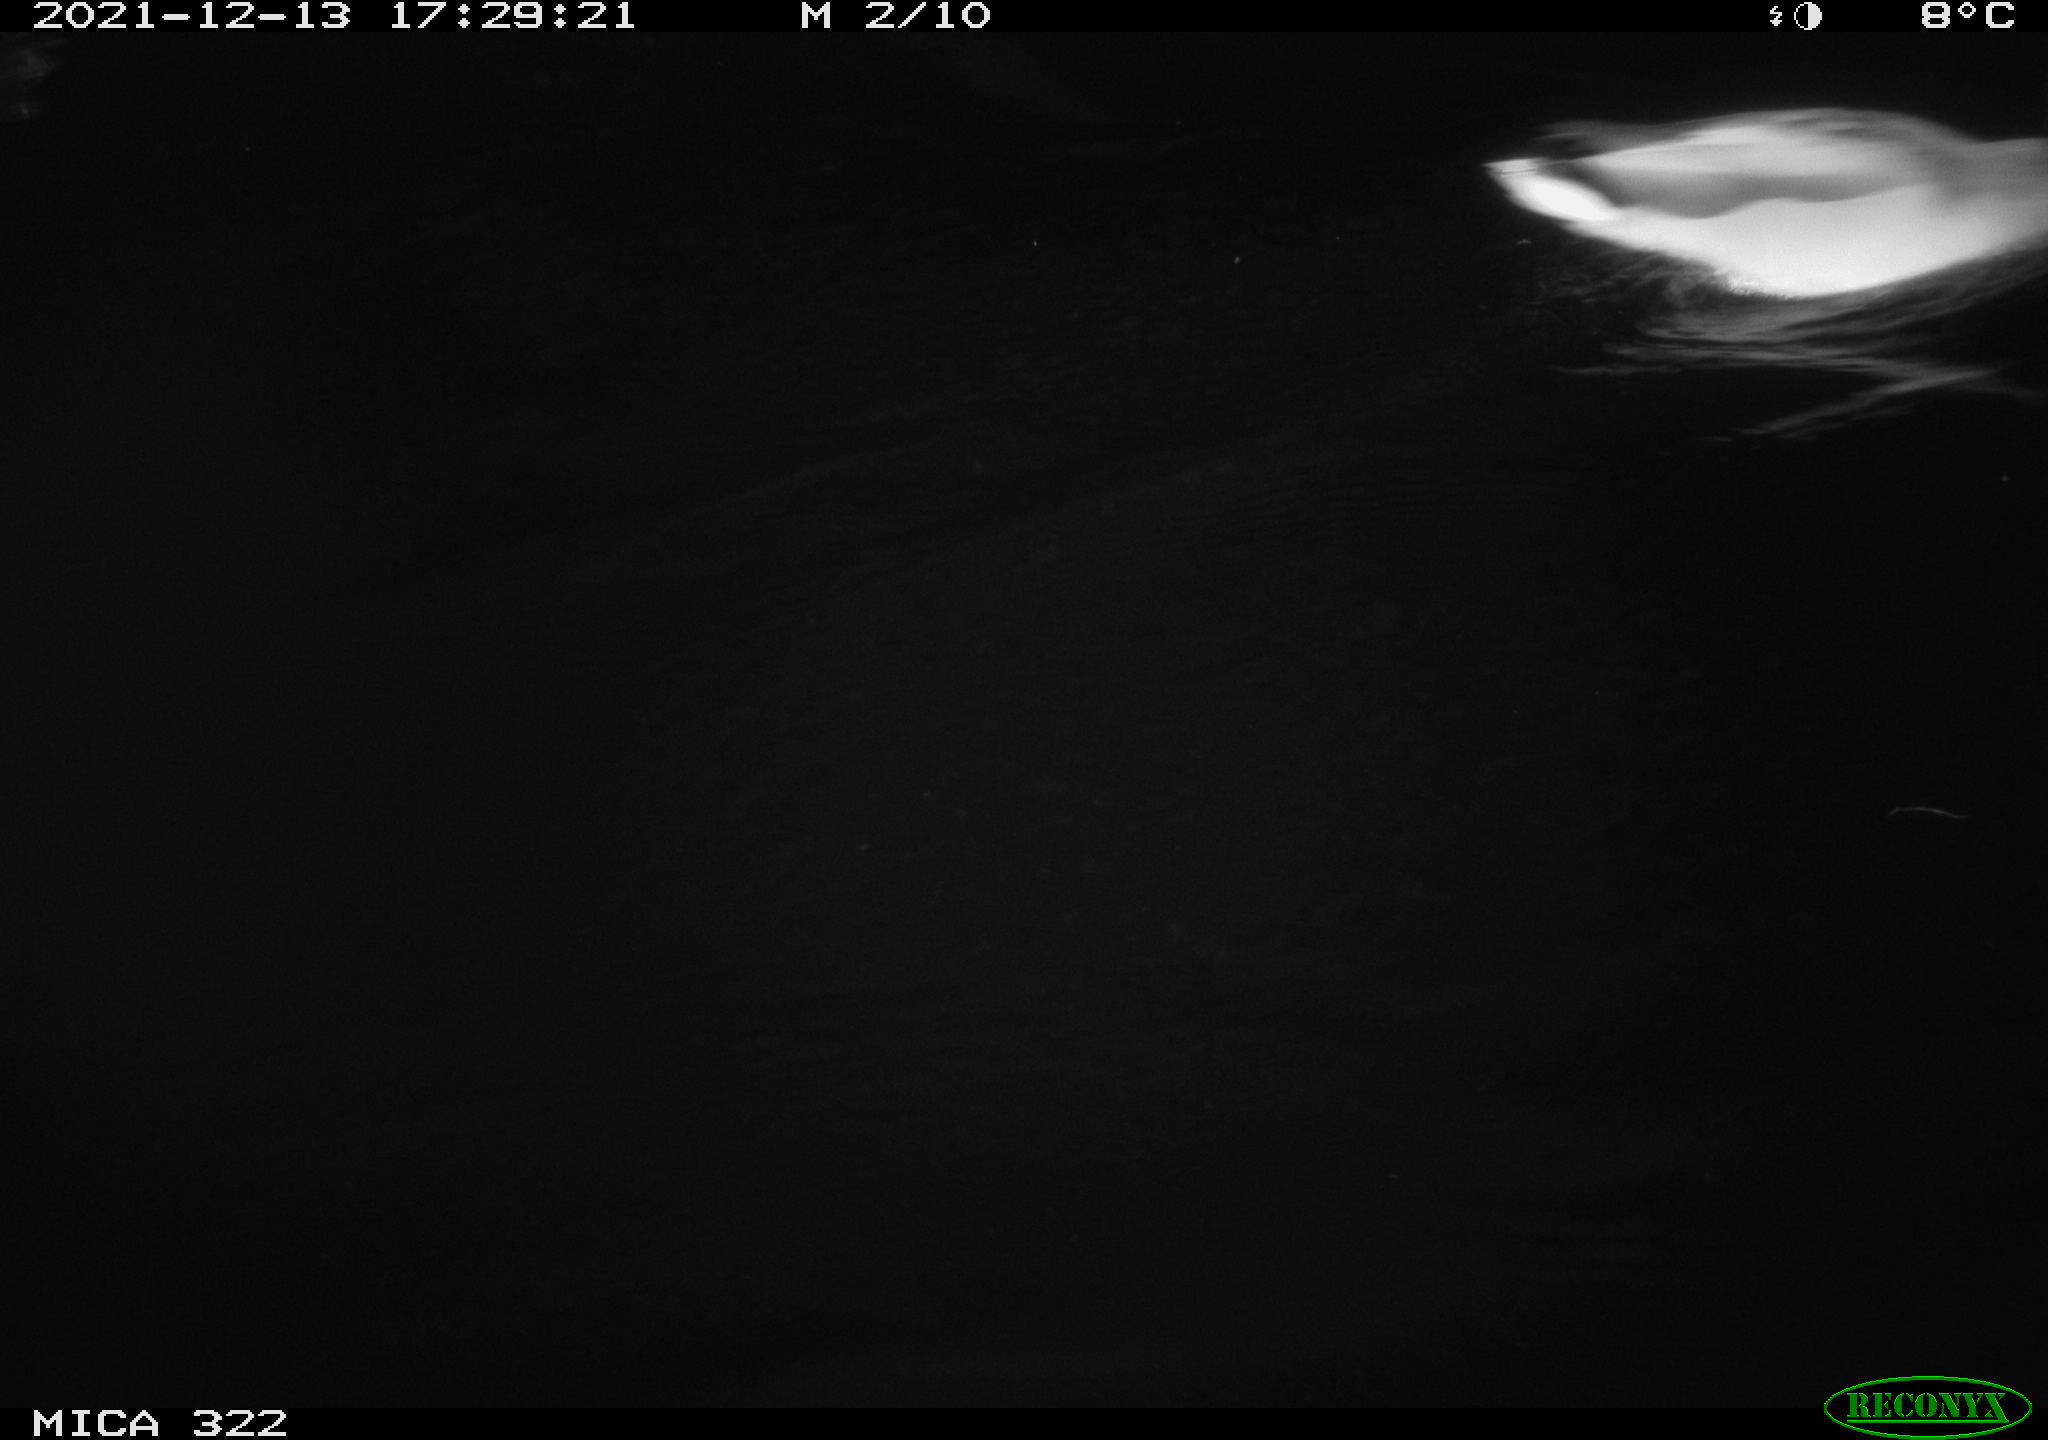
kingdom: Animalia
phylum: Chordata
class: Aves
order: Anseriformes
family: Anatidae
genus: Anas
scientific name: Anas
